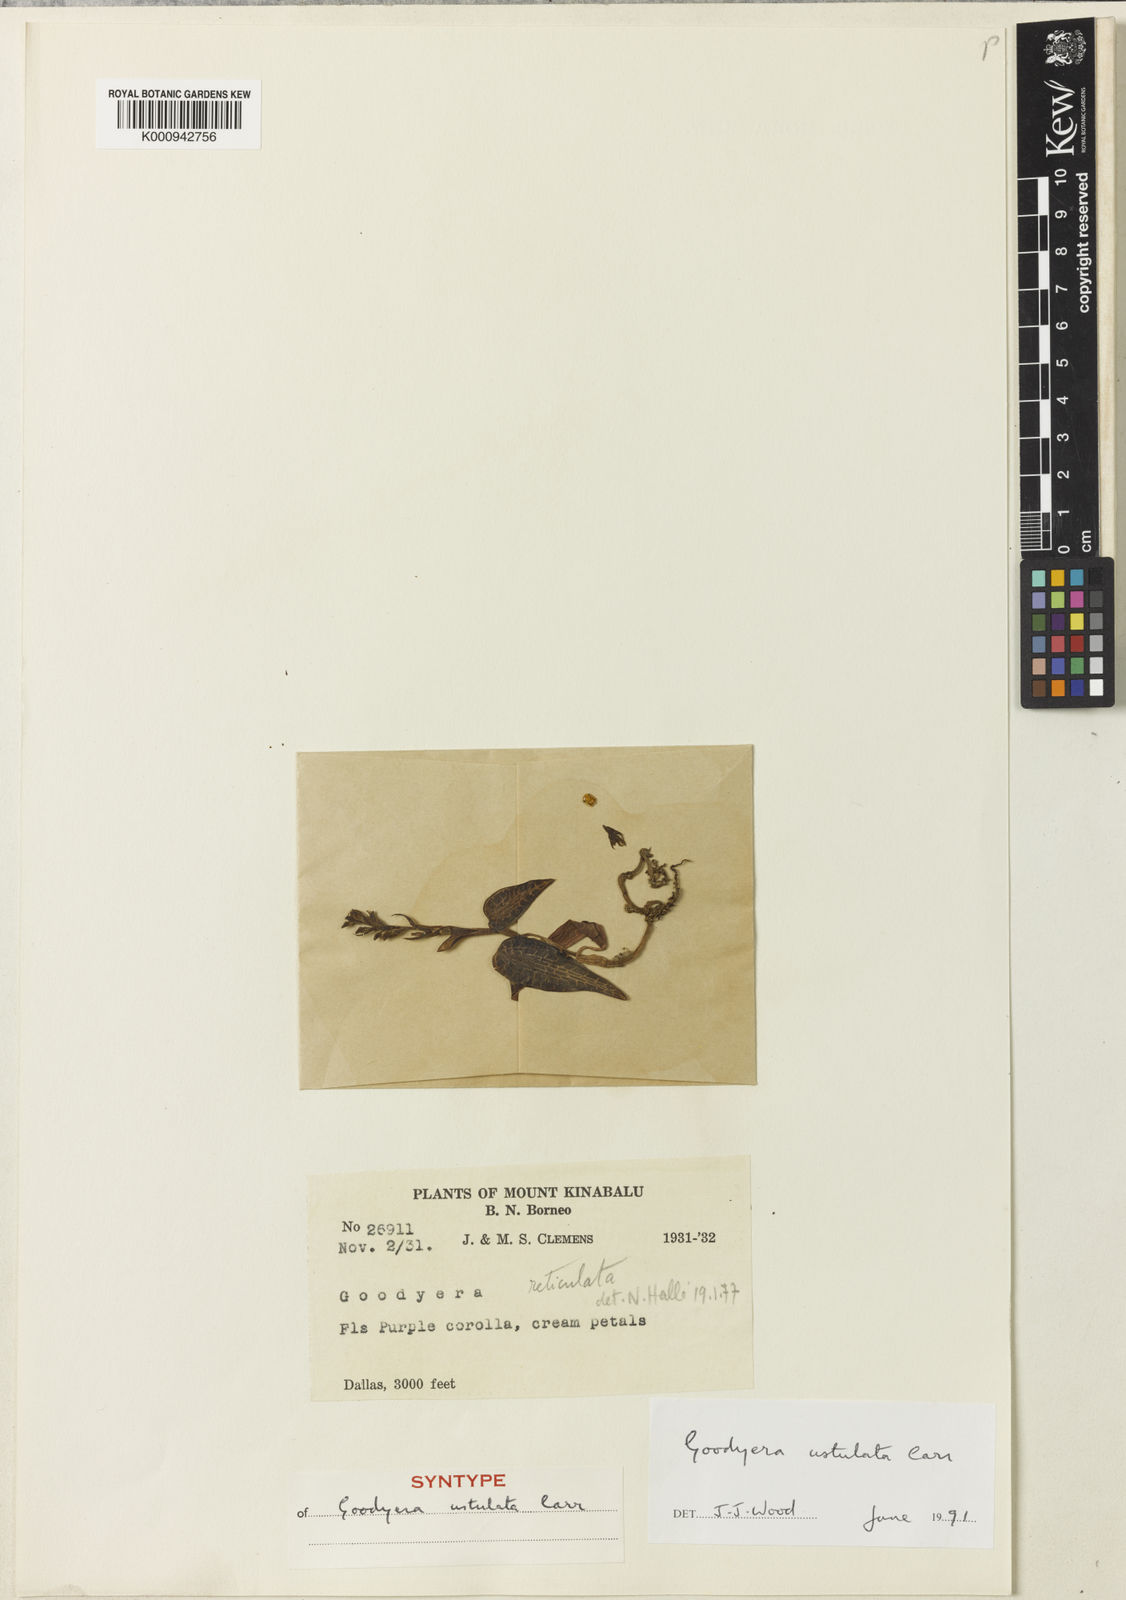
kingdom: Plantae
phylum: Tracheophyta
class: Liliopsida
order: Asparagales
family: Orchidaceae
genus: Goodyera
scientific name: Goodyera rostellata
